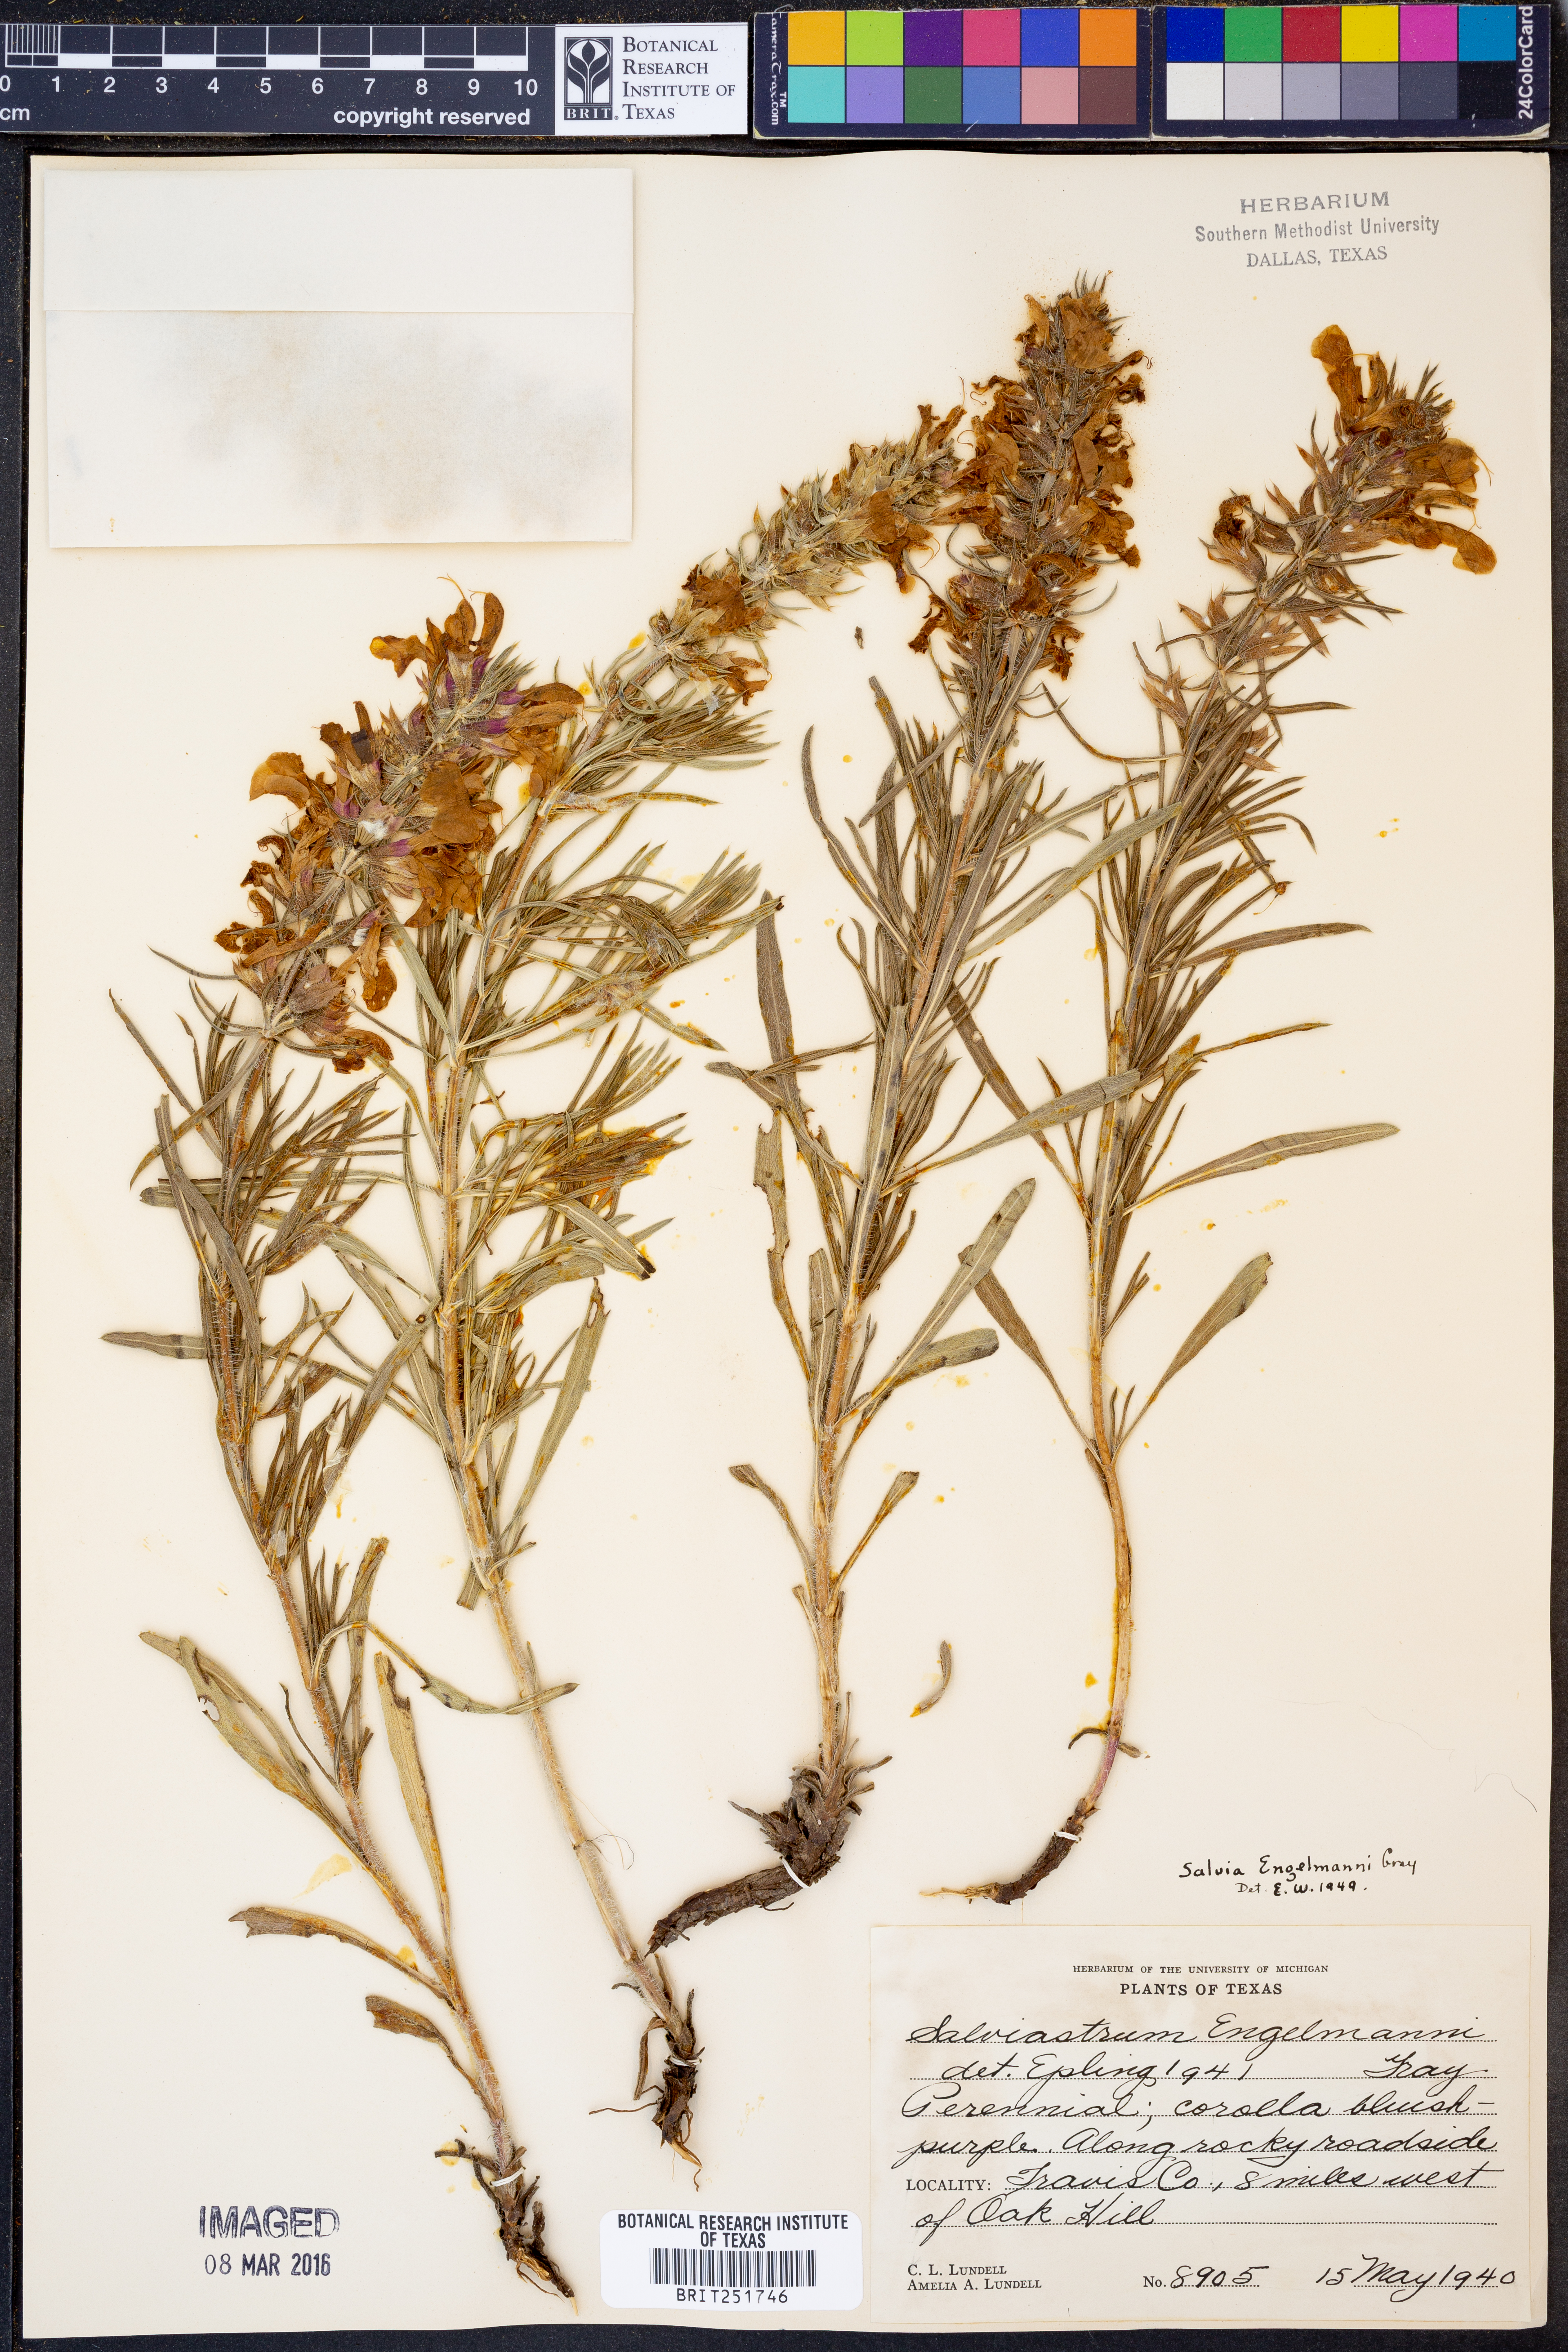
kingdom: Plantae
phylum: Tracheophyta
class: Magnoliopsida
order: Lamiales
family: Lamiaceae
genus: Salvia
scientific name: Salvia engelmannii
